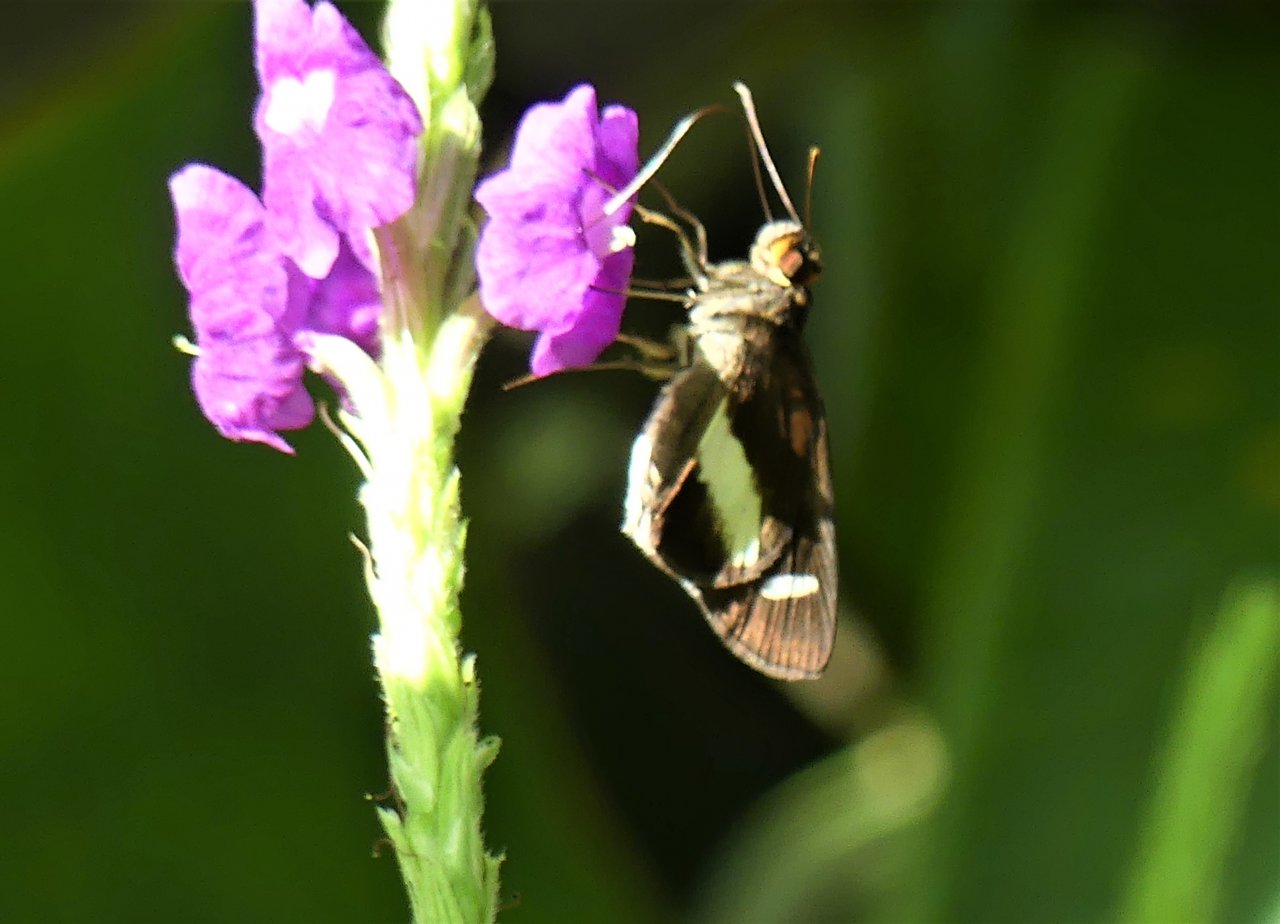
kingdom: Animalia
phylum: Arthropoda
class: Insecta
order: Lepidoptera
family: Hesperiidae
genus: Cobalus
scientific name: Cobalus calvina
